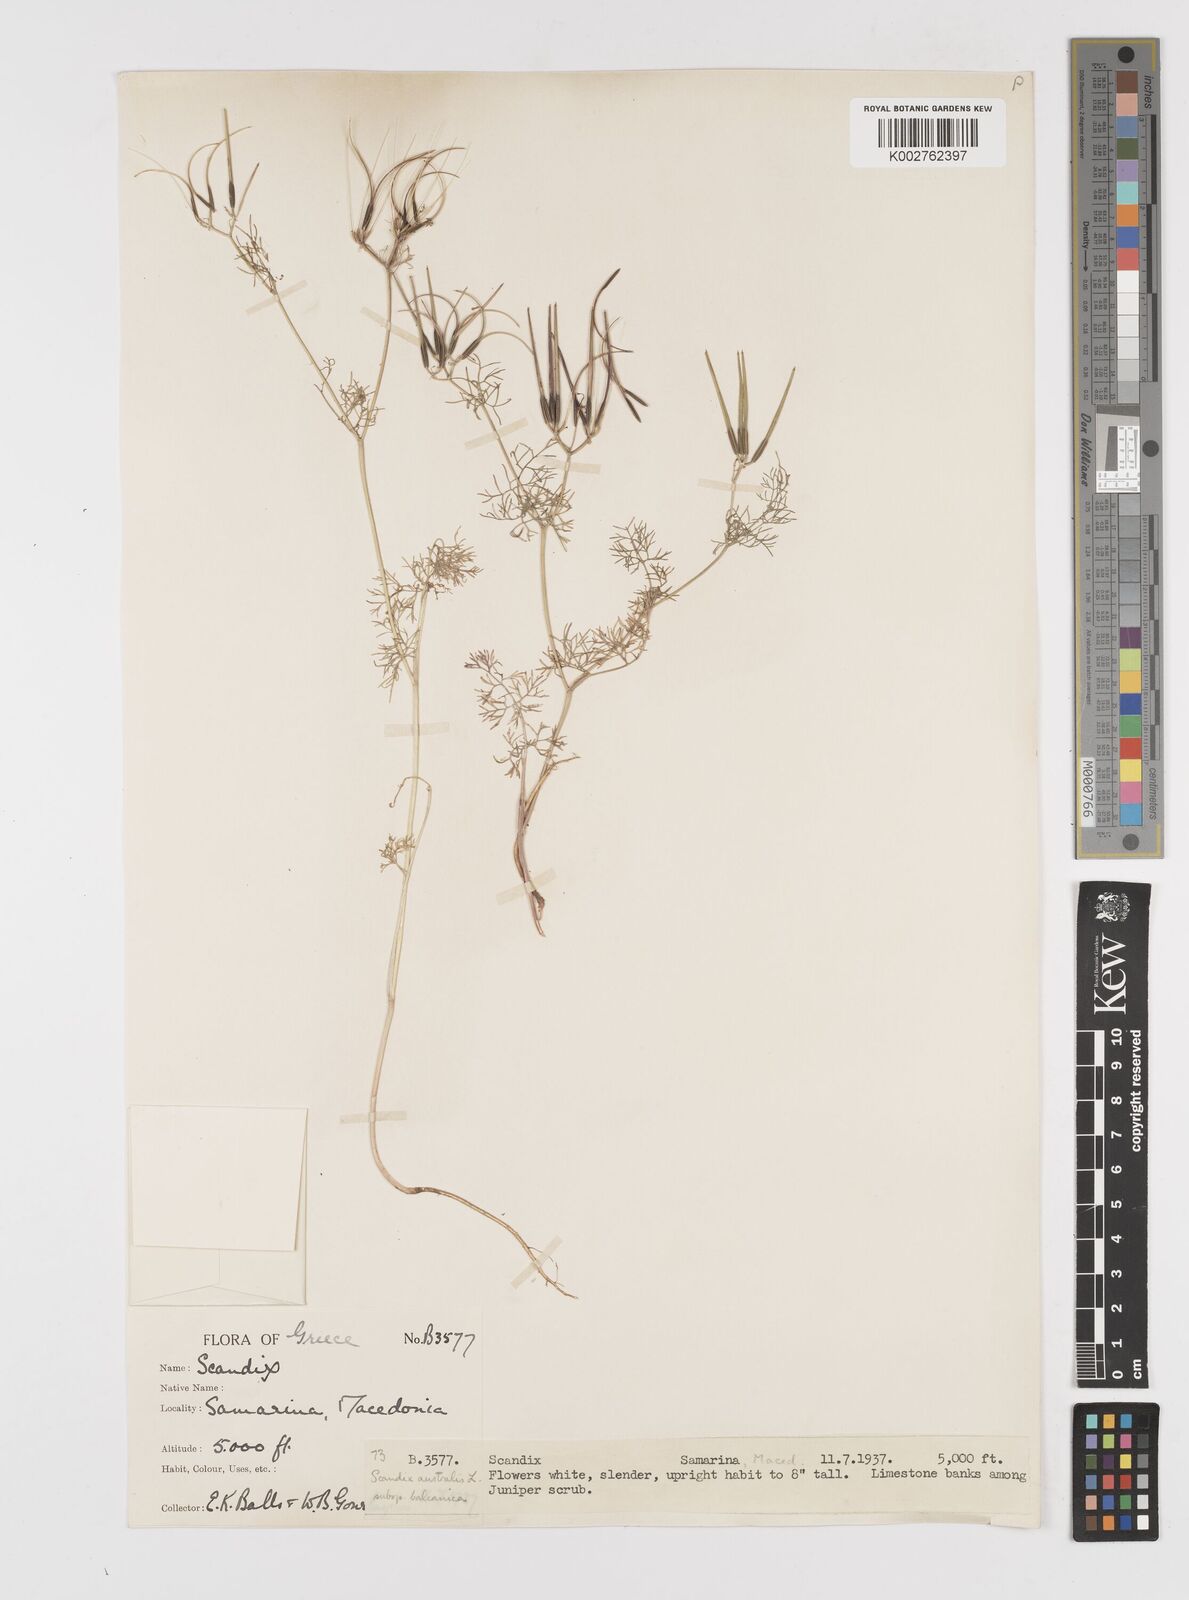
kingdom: Plantae
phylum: Tracheophyta
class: Magnoliopsida
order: Apiales
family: Apiaceae
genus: Scandix
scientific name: Scandix pecten-veneris
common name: Shepherd's-needle
